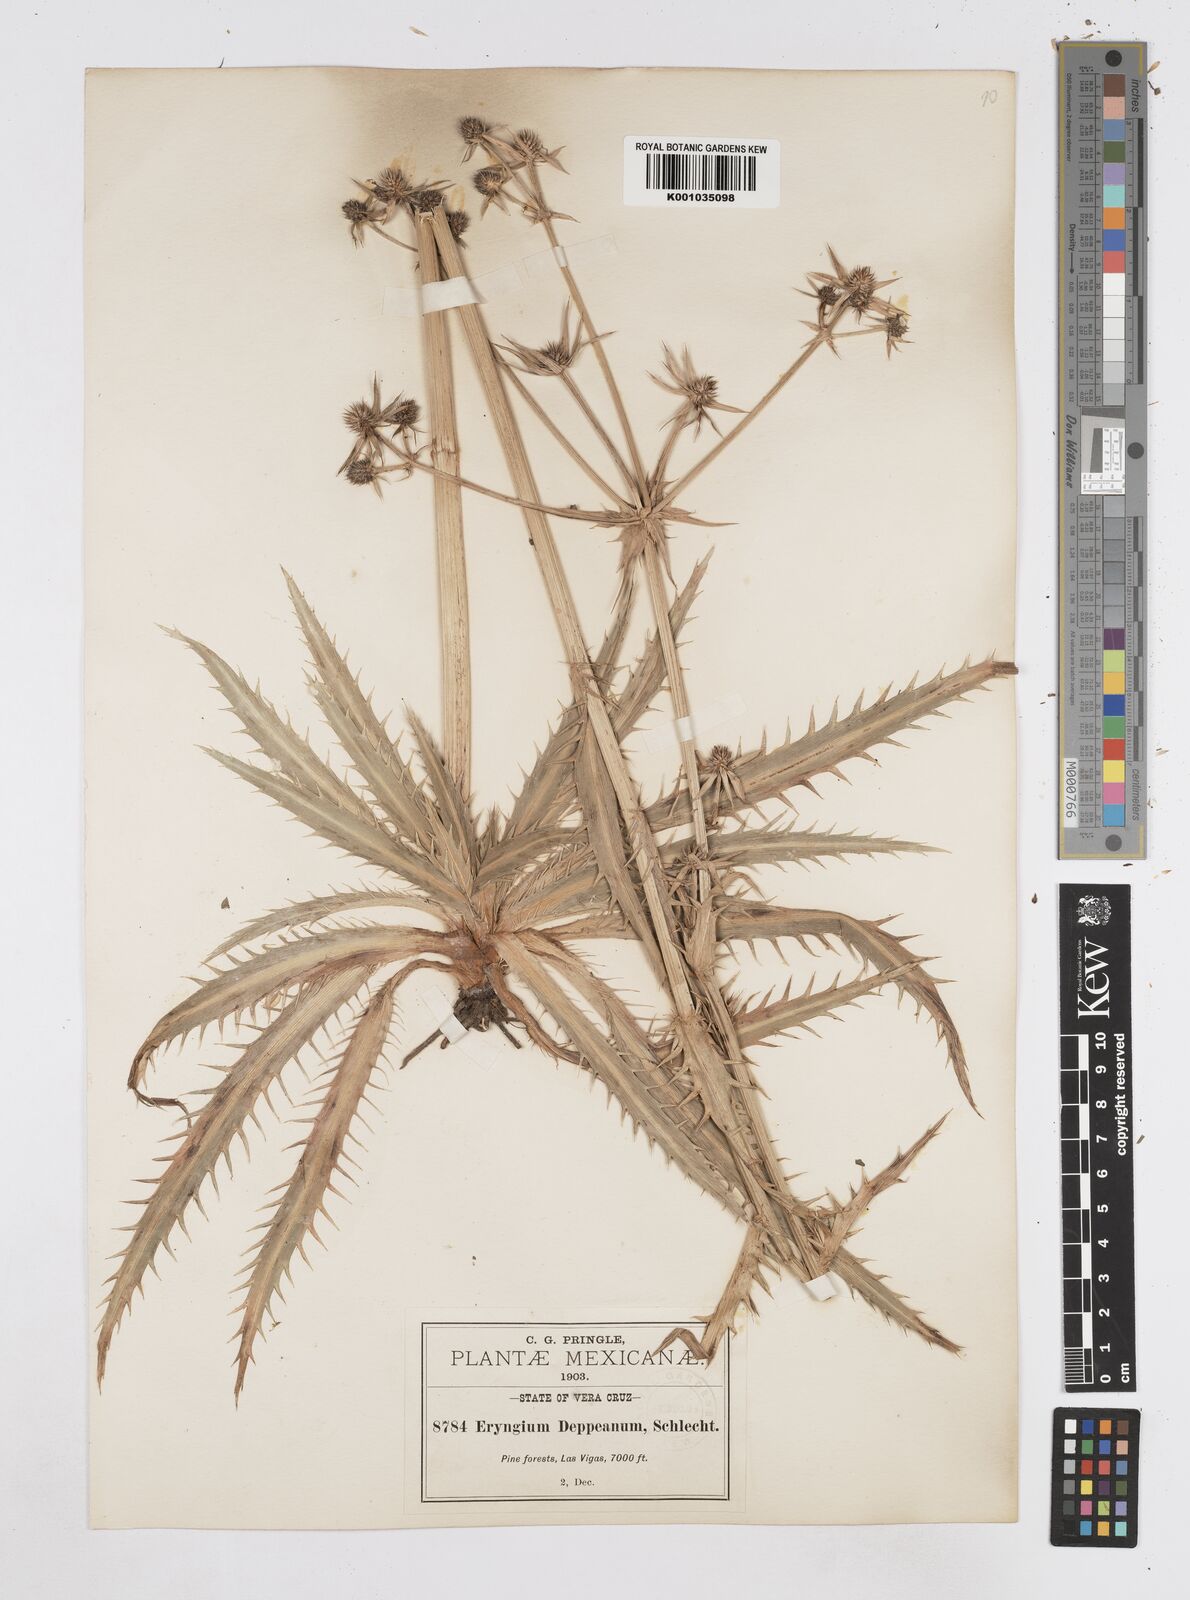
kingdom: Plantae
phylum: Tracheophyta
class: Magnoliopsida
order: Apiales
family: Apiaceae
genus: Eryngium
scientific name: Eryngium
